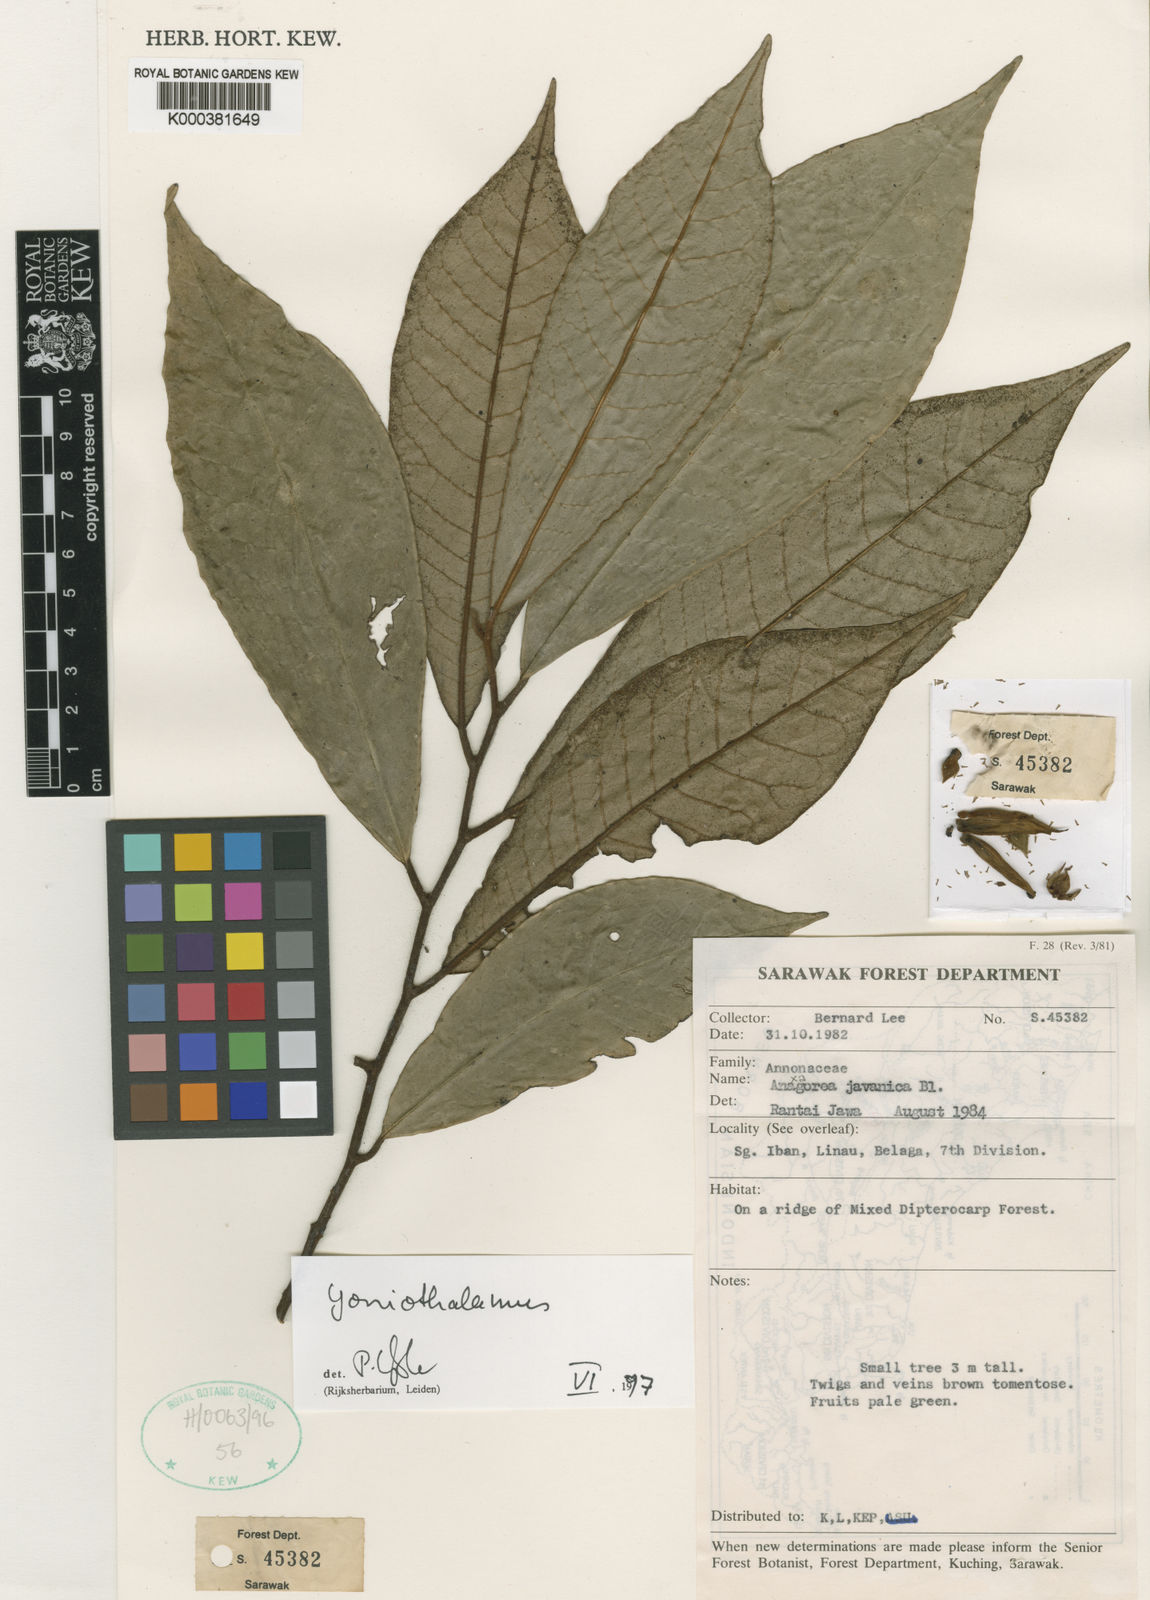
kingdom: Plantae
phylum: Tracheophyta
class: Magnoliopsida
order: Magnoliales
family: Annonaceae
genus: Goniothalamus
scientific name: Goniothalamus bygravei
